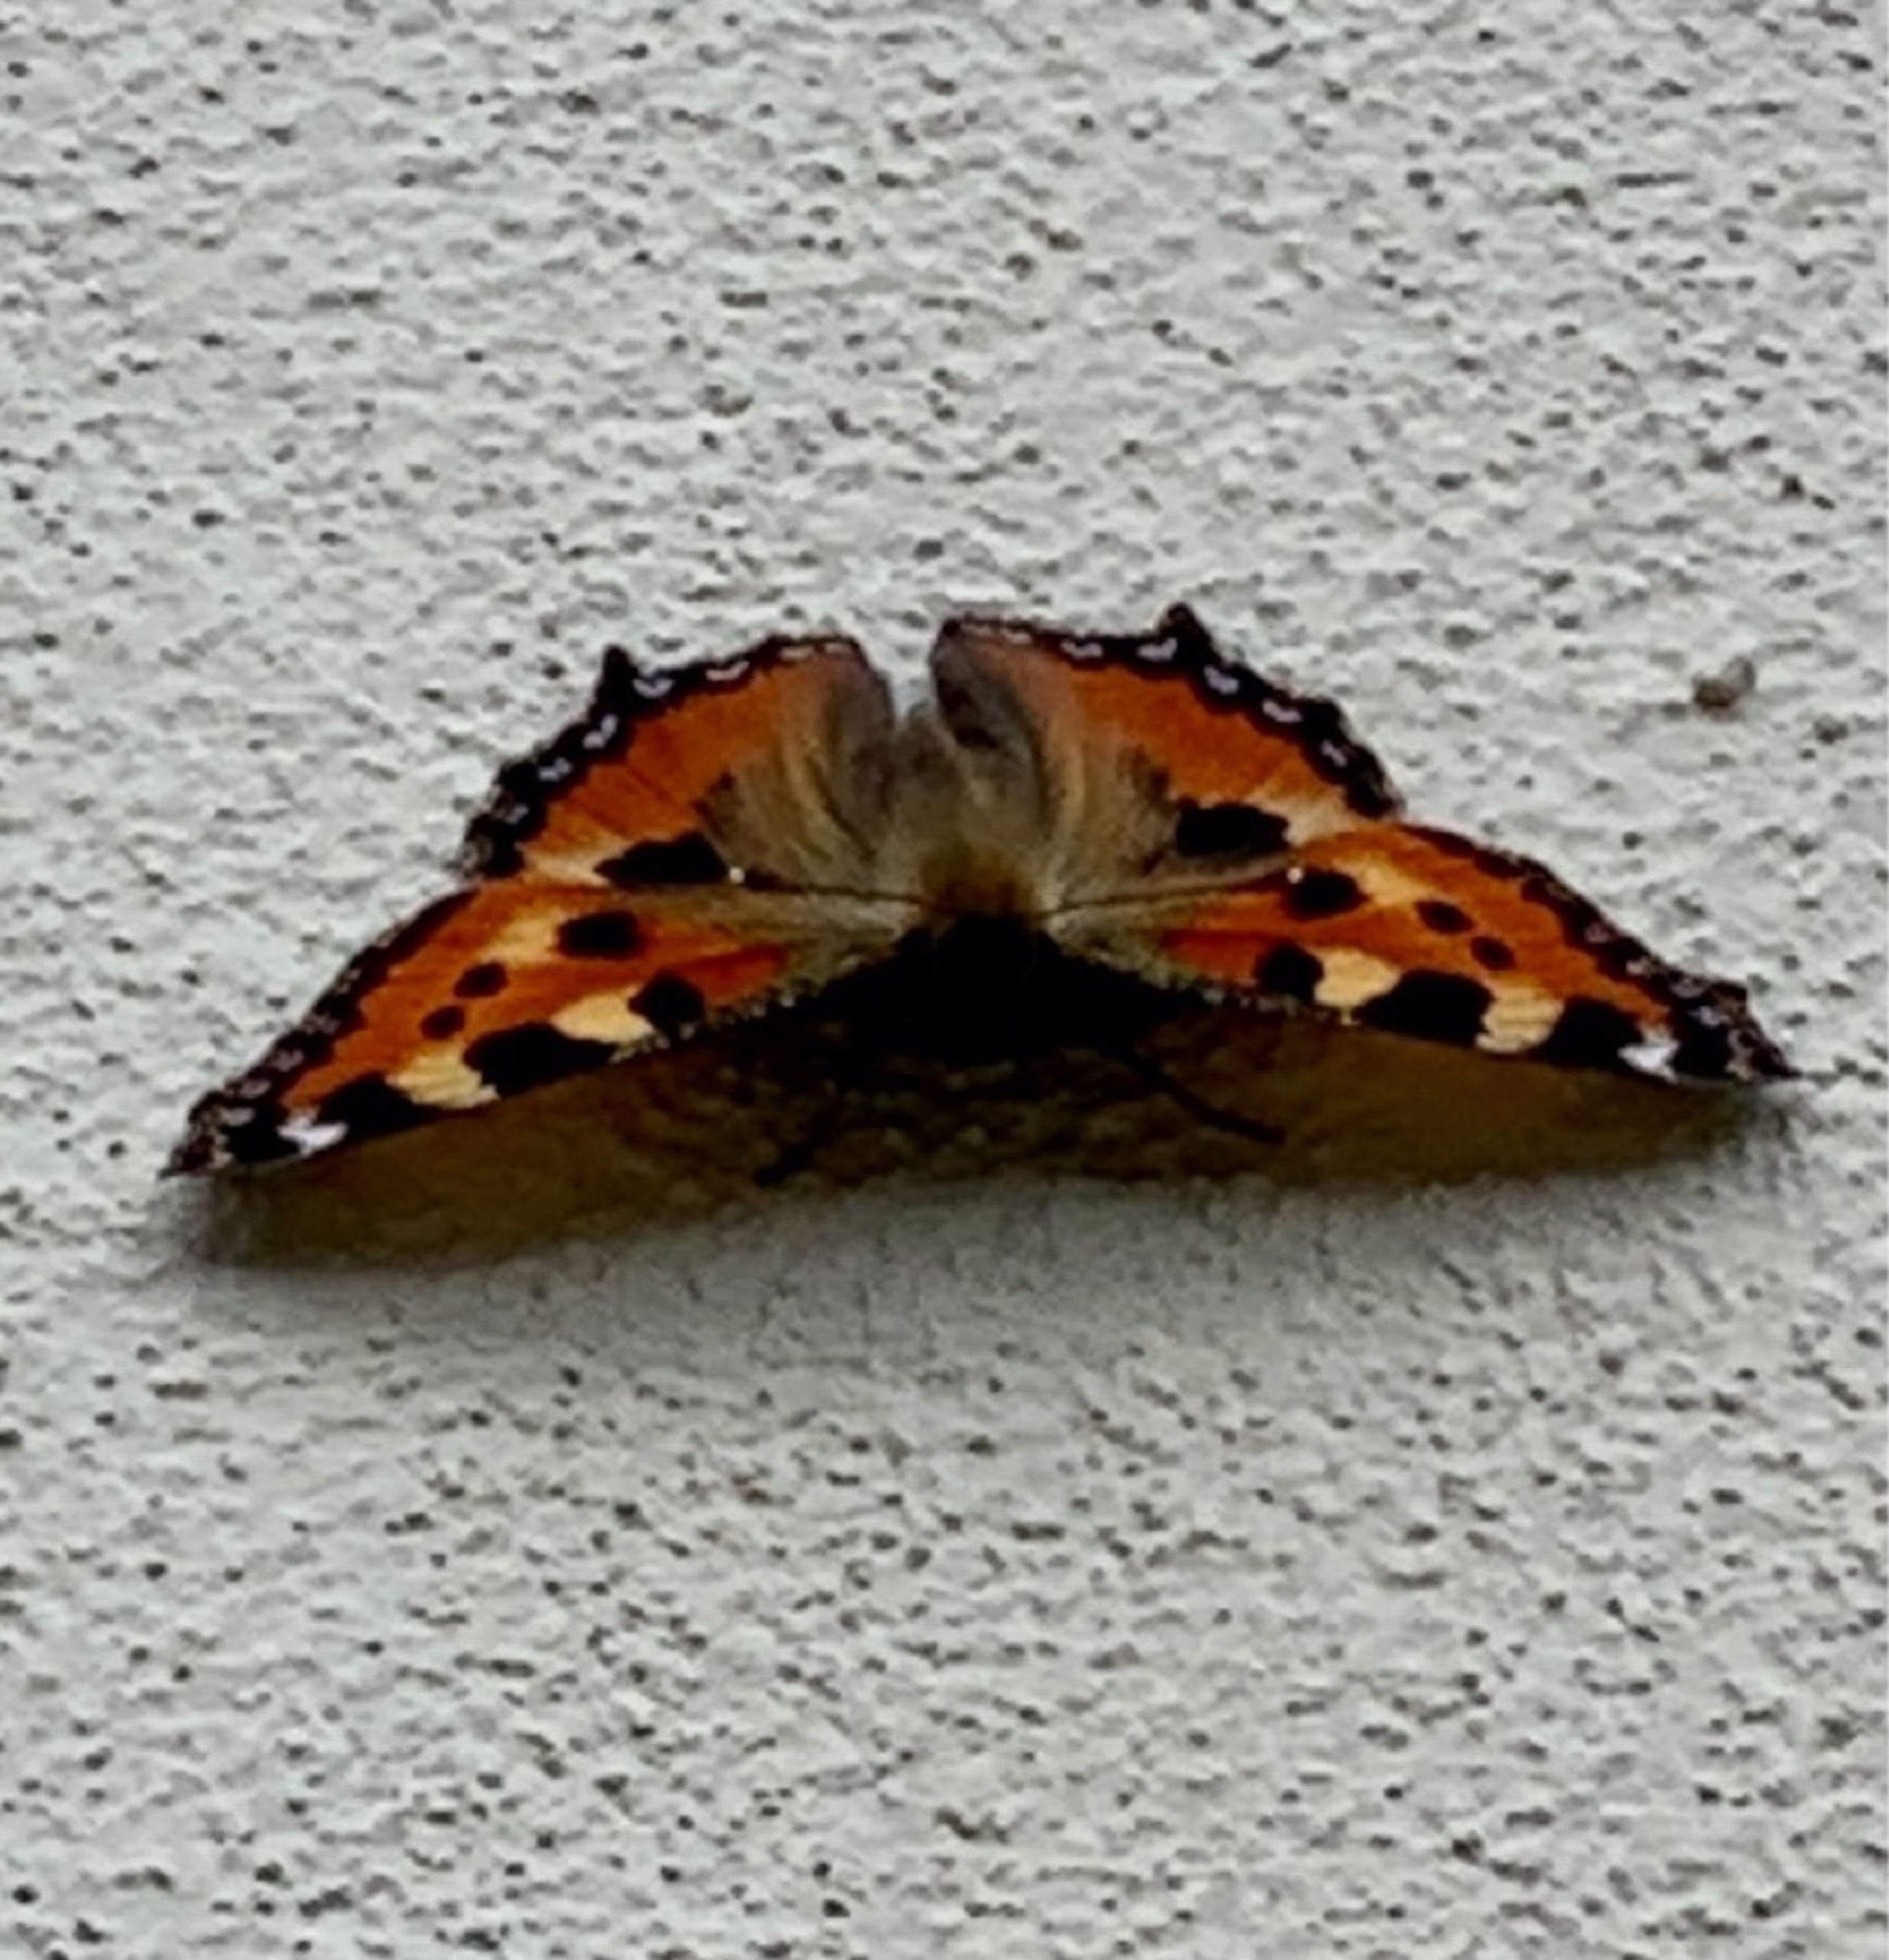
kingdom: Animalia
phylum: Arthropoda
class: Insecta
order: Lepidoptera
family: Nymphalidae
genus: Aglais
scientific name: Aglais urticae
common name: Nældens takvinge
